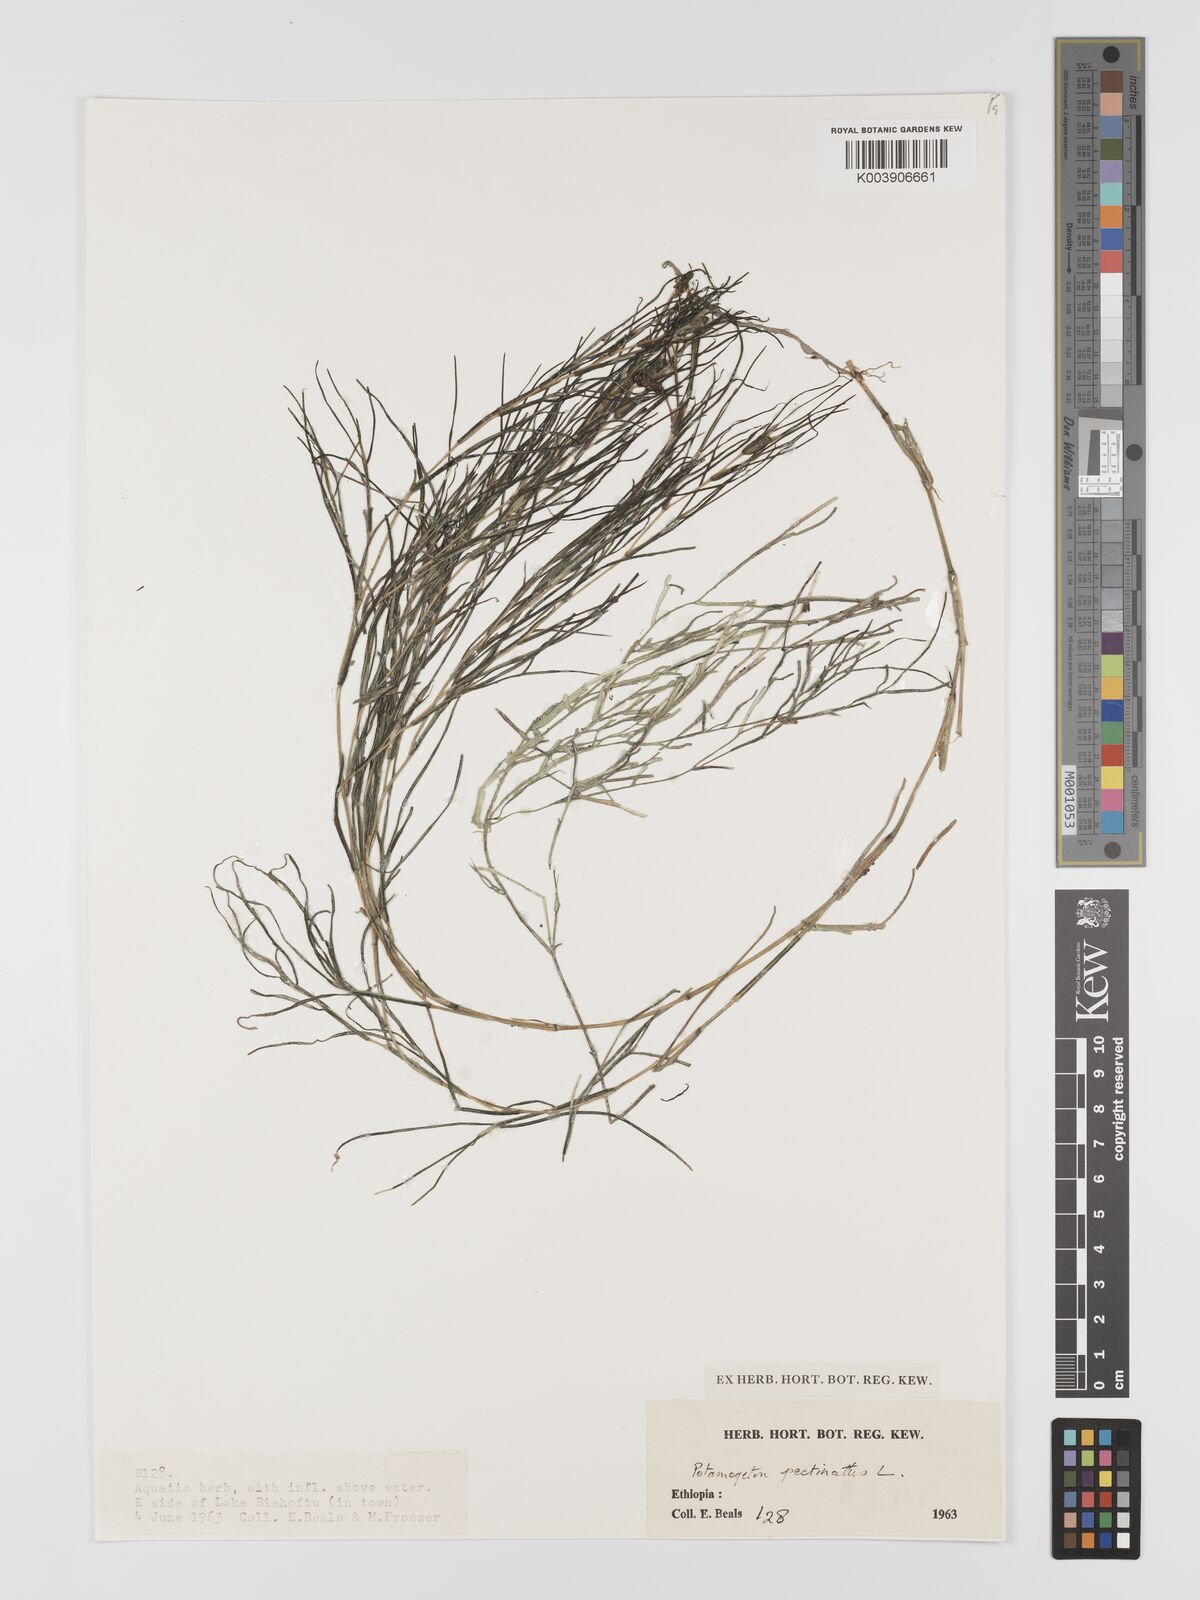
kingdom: Plantae
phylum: Tracheophyta
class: Liliopsida
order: Alismatales
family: Potamogetonaceae
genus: Stuckenia
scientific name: Stuckenia pectinata
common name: Sago pondweed
